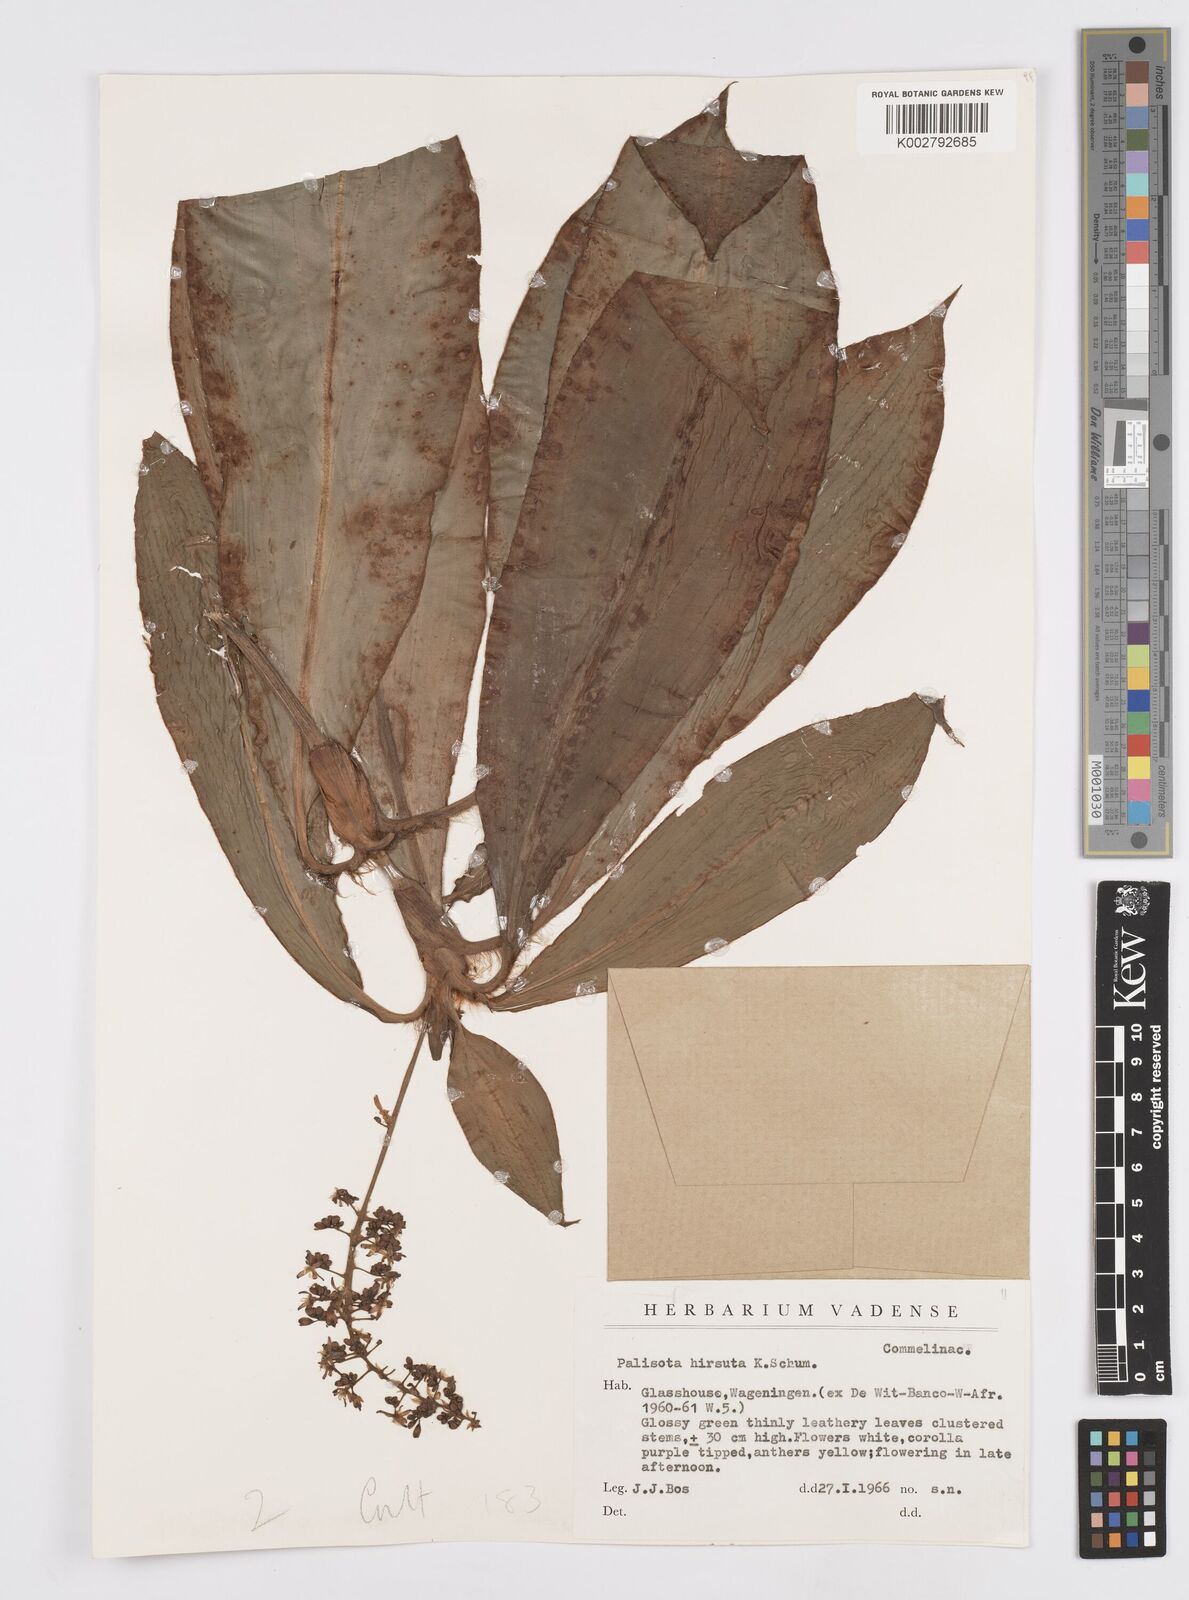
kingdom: Plantae
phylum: Tracheophyta
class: Liliopsida
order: Commelinales
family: Commelinaceae
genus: Palisota
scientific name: Palisota hirsuta
